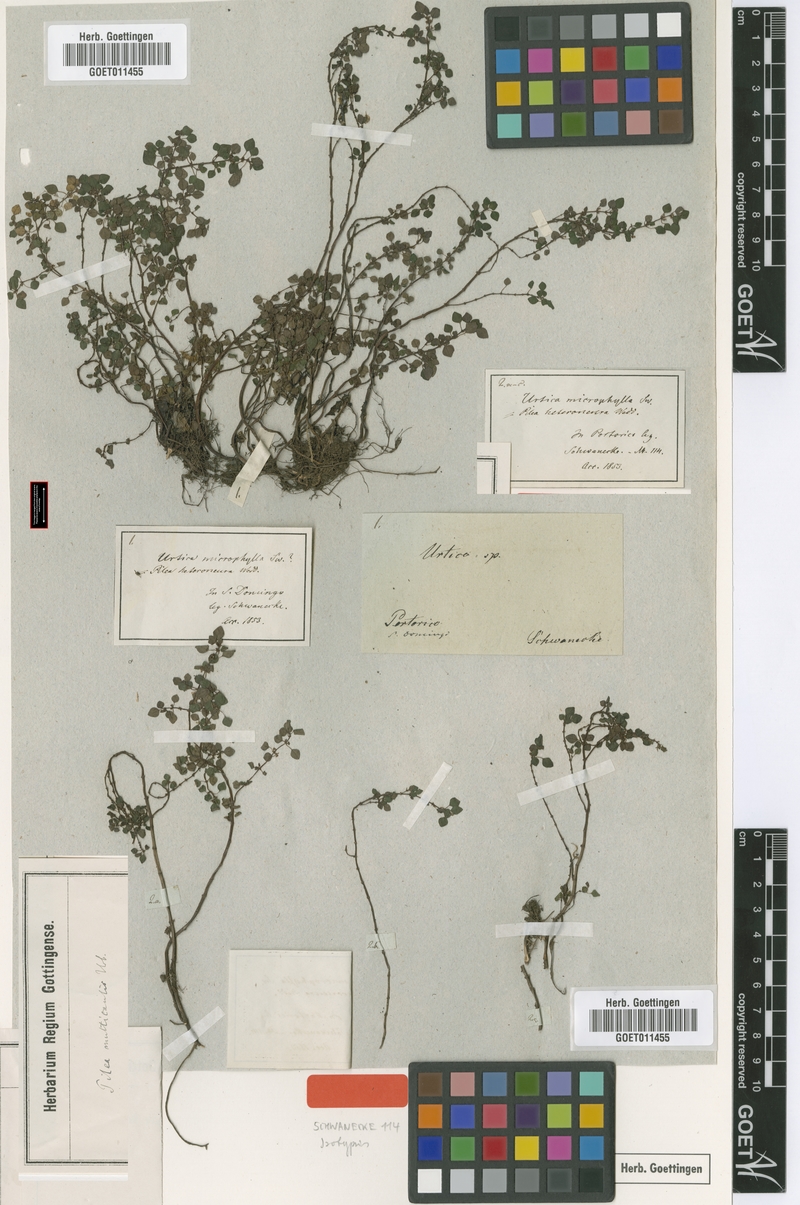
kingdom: Plantae
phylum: Tracheophyta
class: Magnoliopsida
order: Rosales
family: Urticaceae
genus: Pilea
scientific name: Pilea multicaulis
